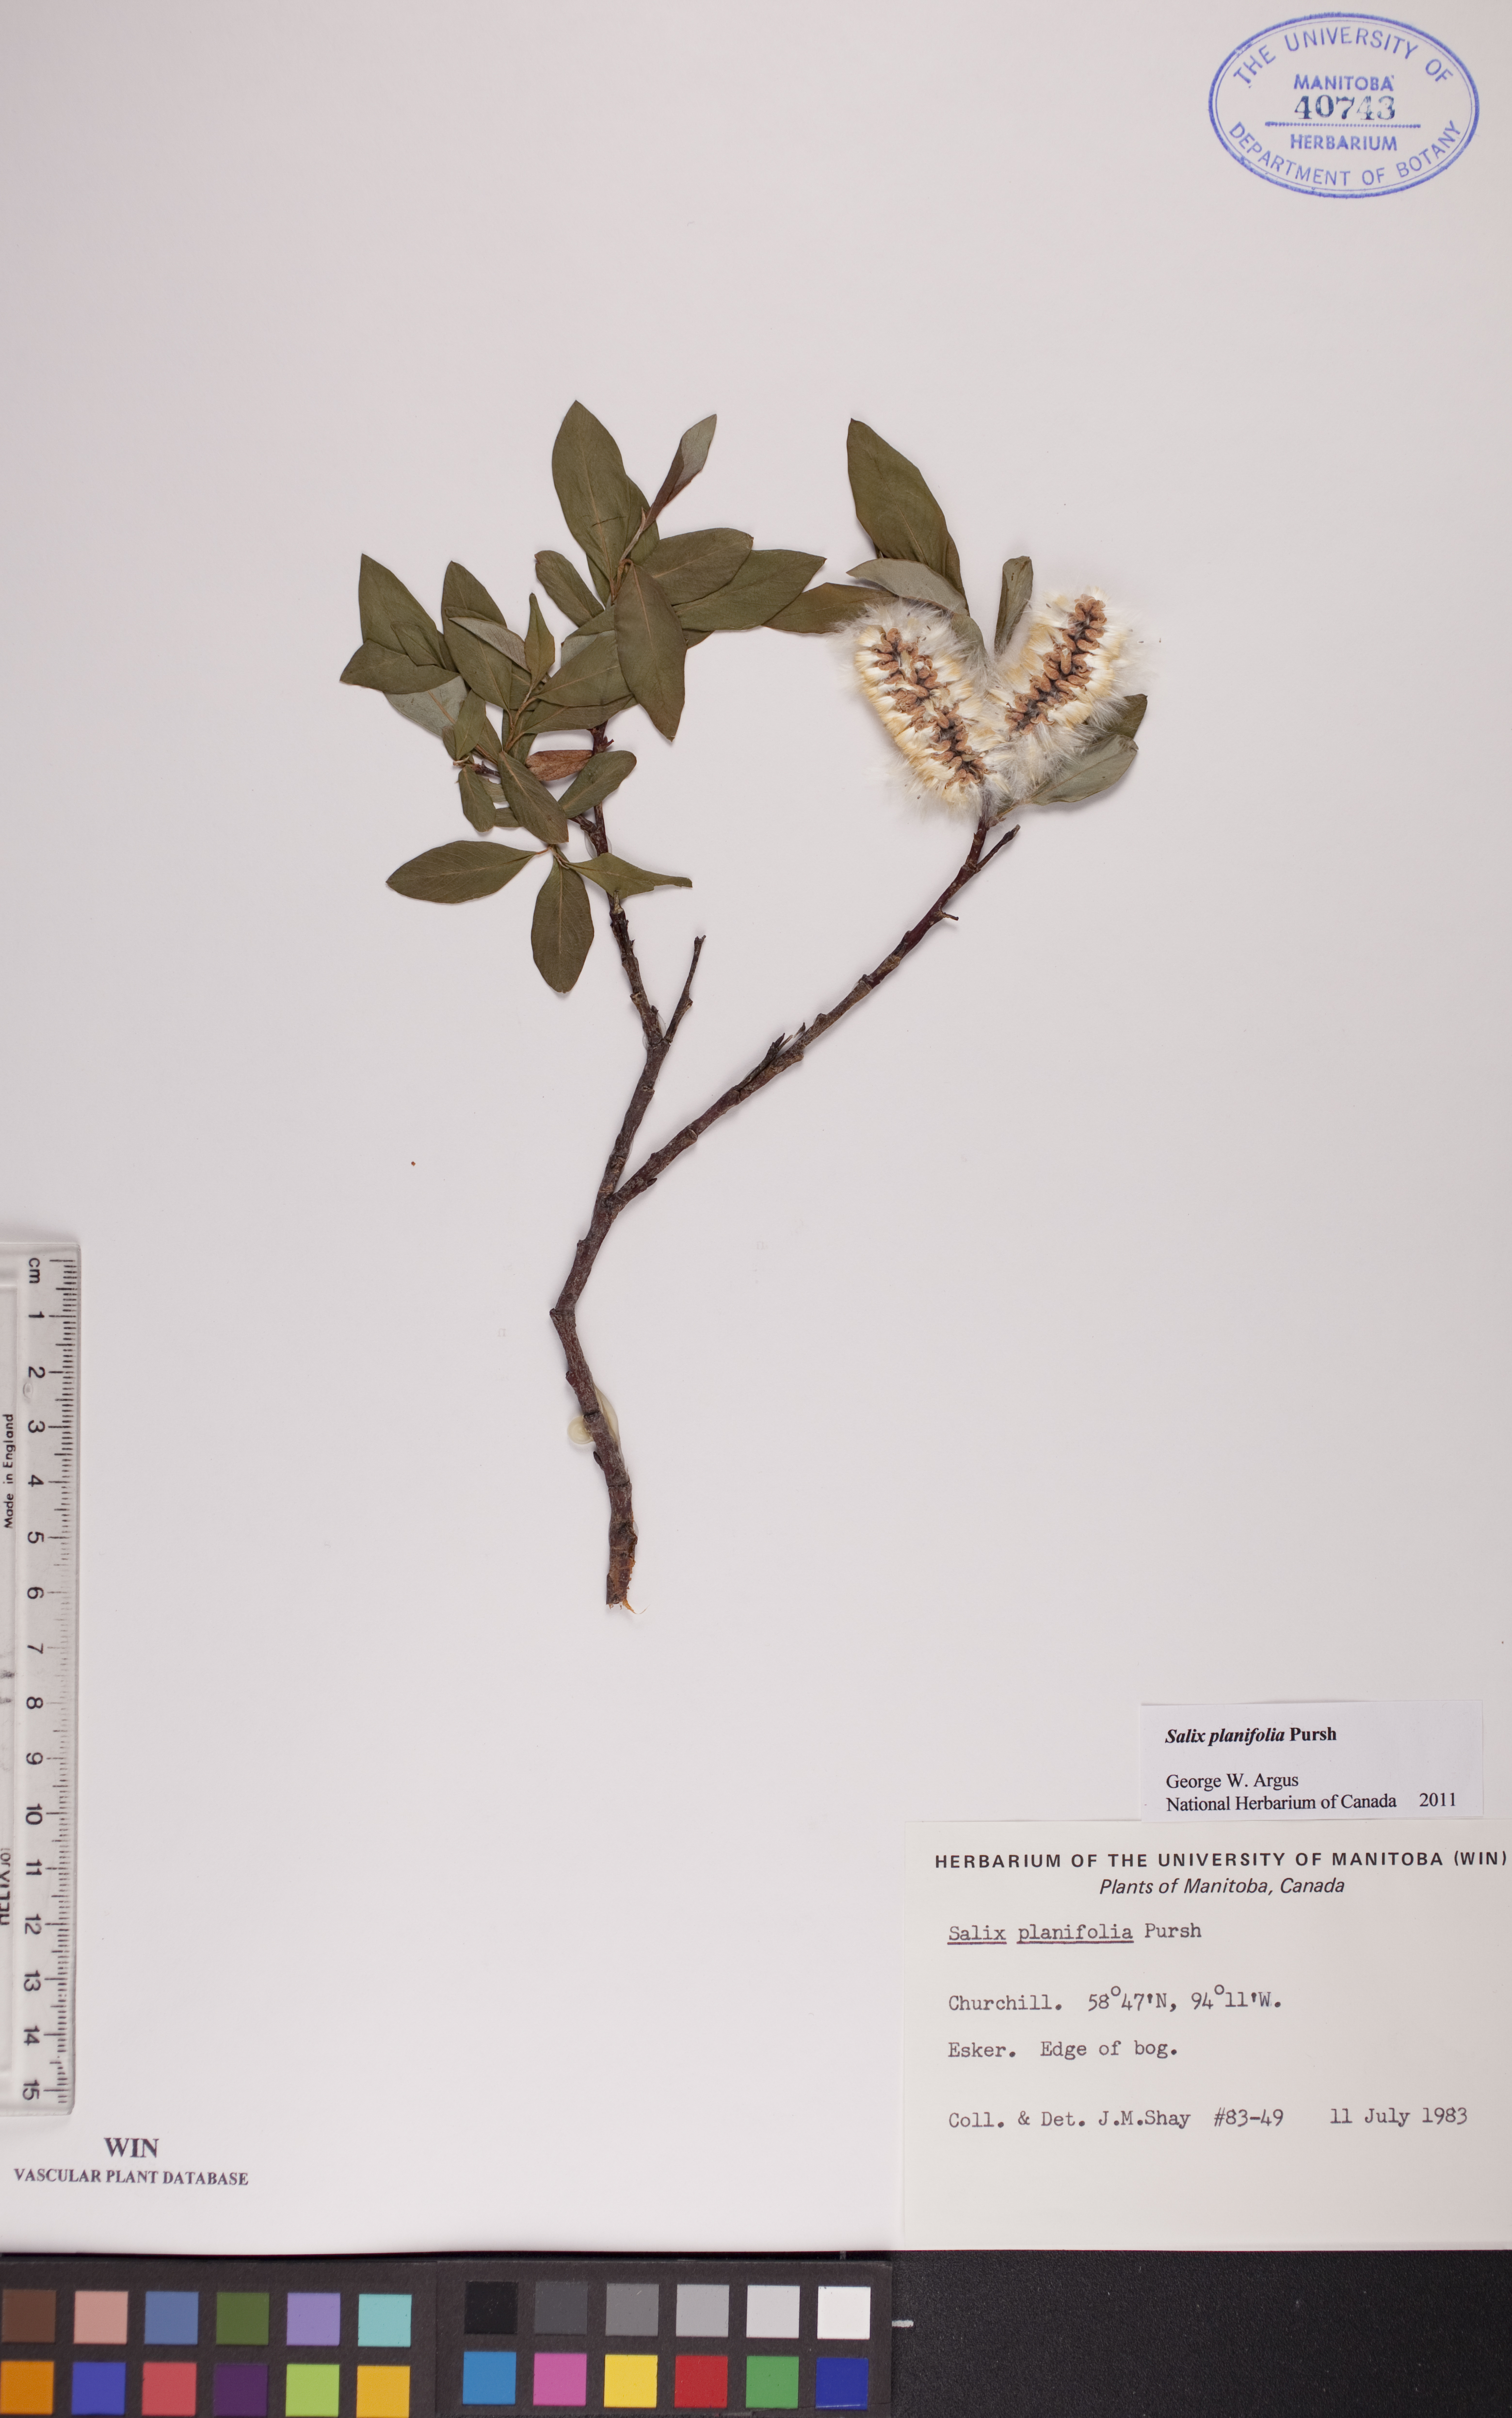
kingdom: Plantae
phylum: Tracheophyta
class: Magnoliopsida
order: Malpighiales
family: Salicaceae
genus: Salix
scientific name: Salix planifolia
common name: Mountain willow
